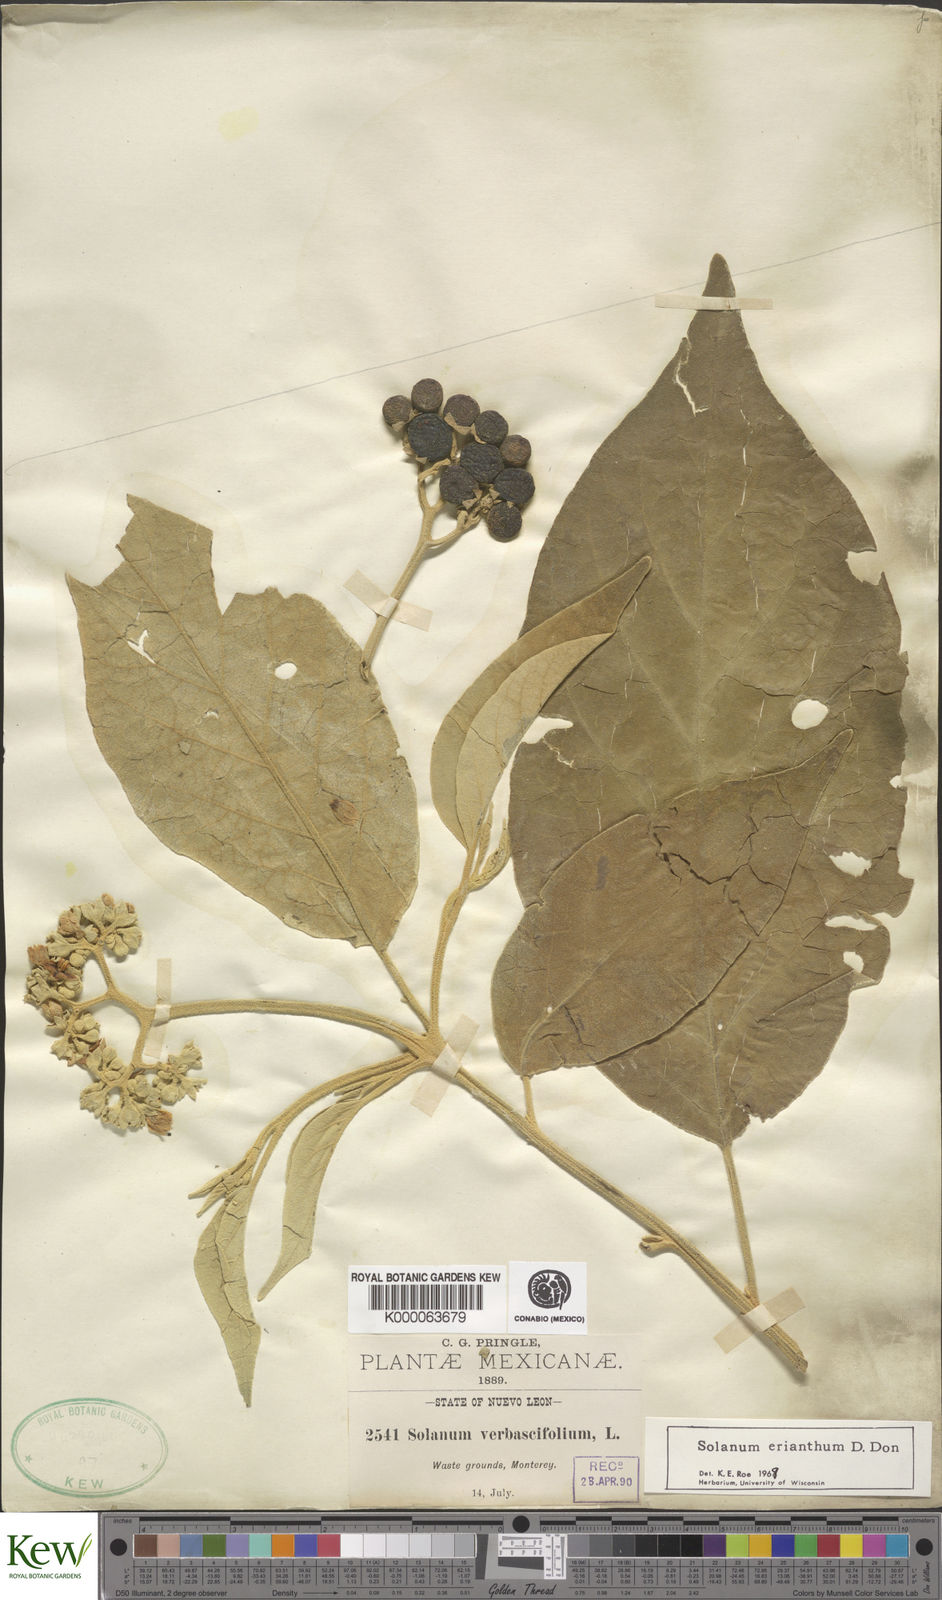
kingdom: Plantae
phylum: Tracheophyta
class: Magnoliopsida
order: Solanales
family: Solanaceae
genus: Solanum
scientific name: Solanum erianthum
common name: Tobacco-tree
